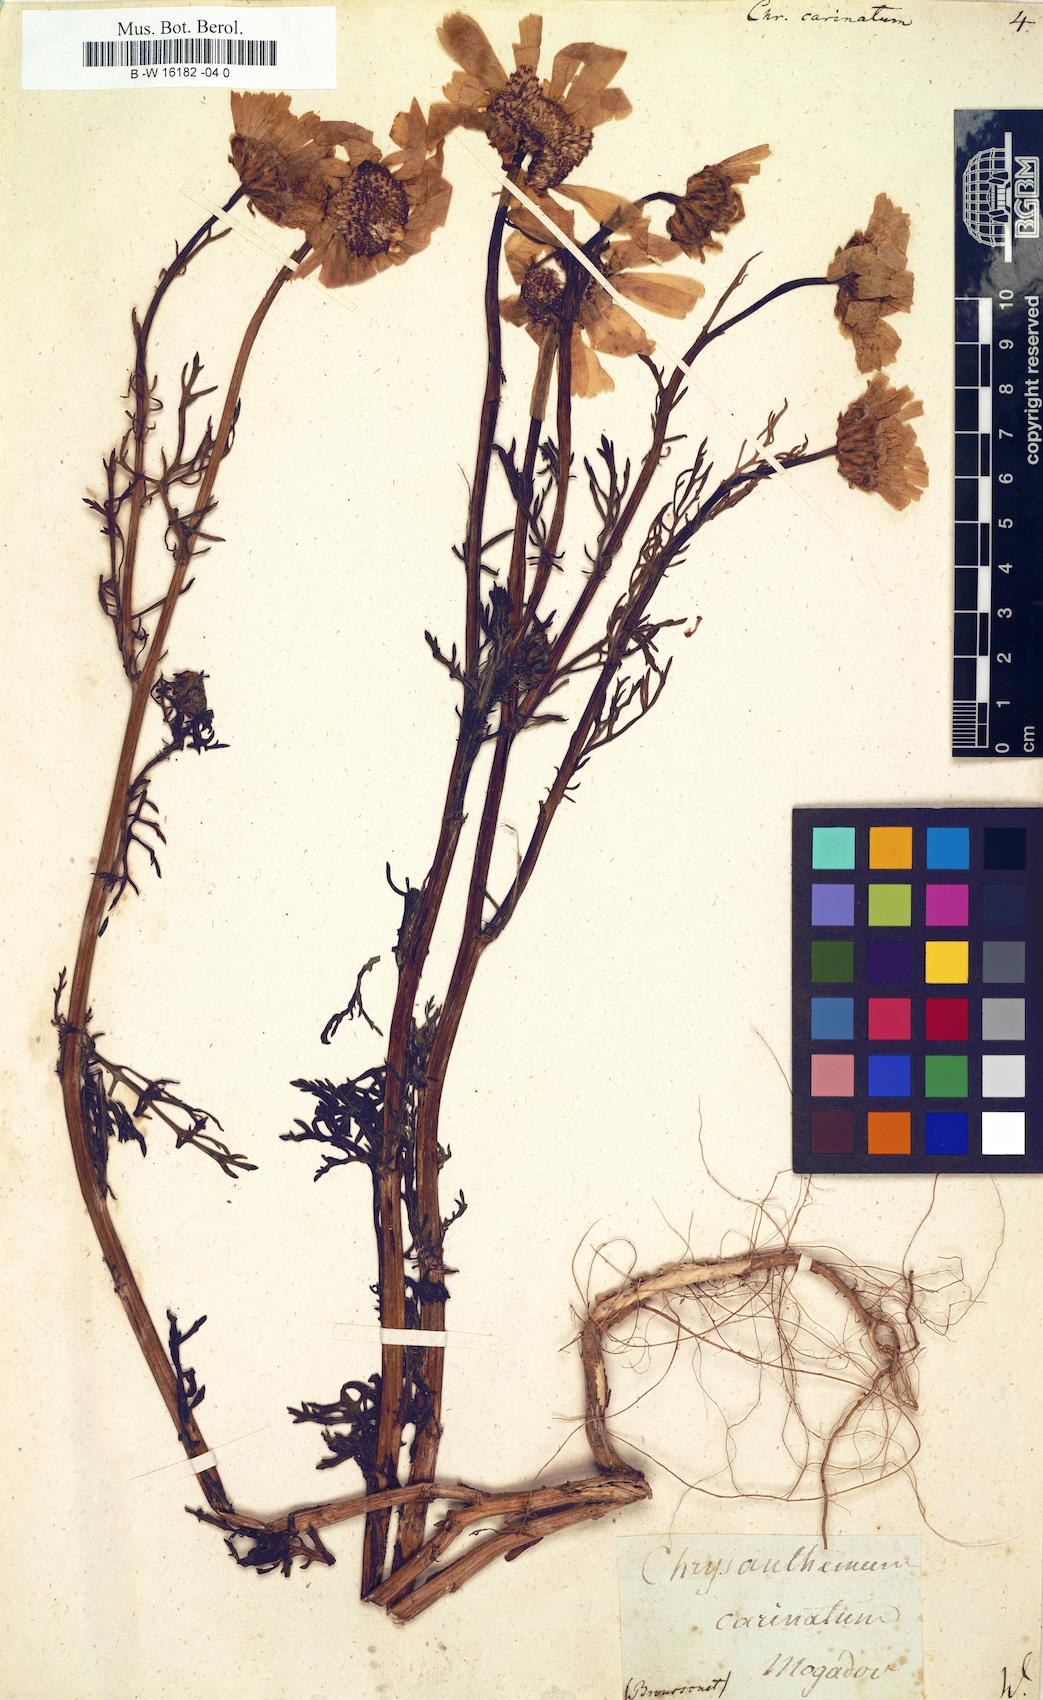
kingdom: Plantae
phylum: Tracheophyta
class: Magnoliopsida
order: Asterales
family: Asteraceae
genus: Glebionis
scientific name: Glebionis carinata
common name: Painted daisy
